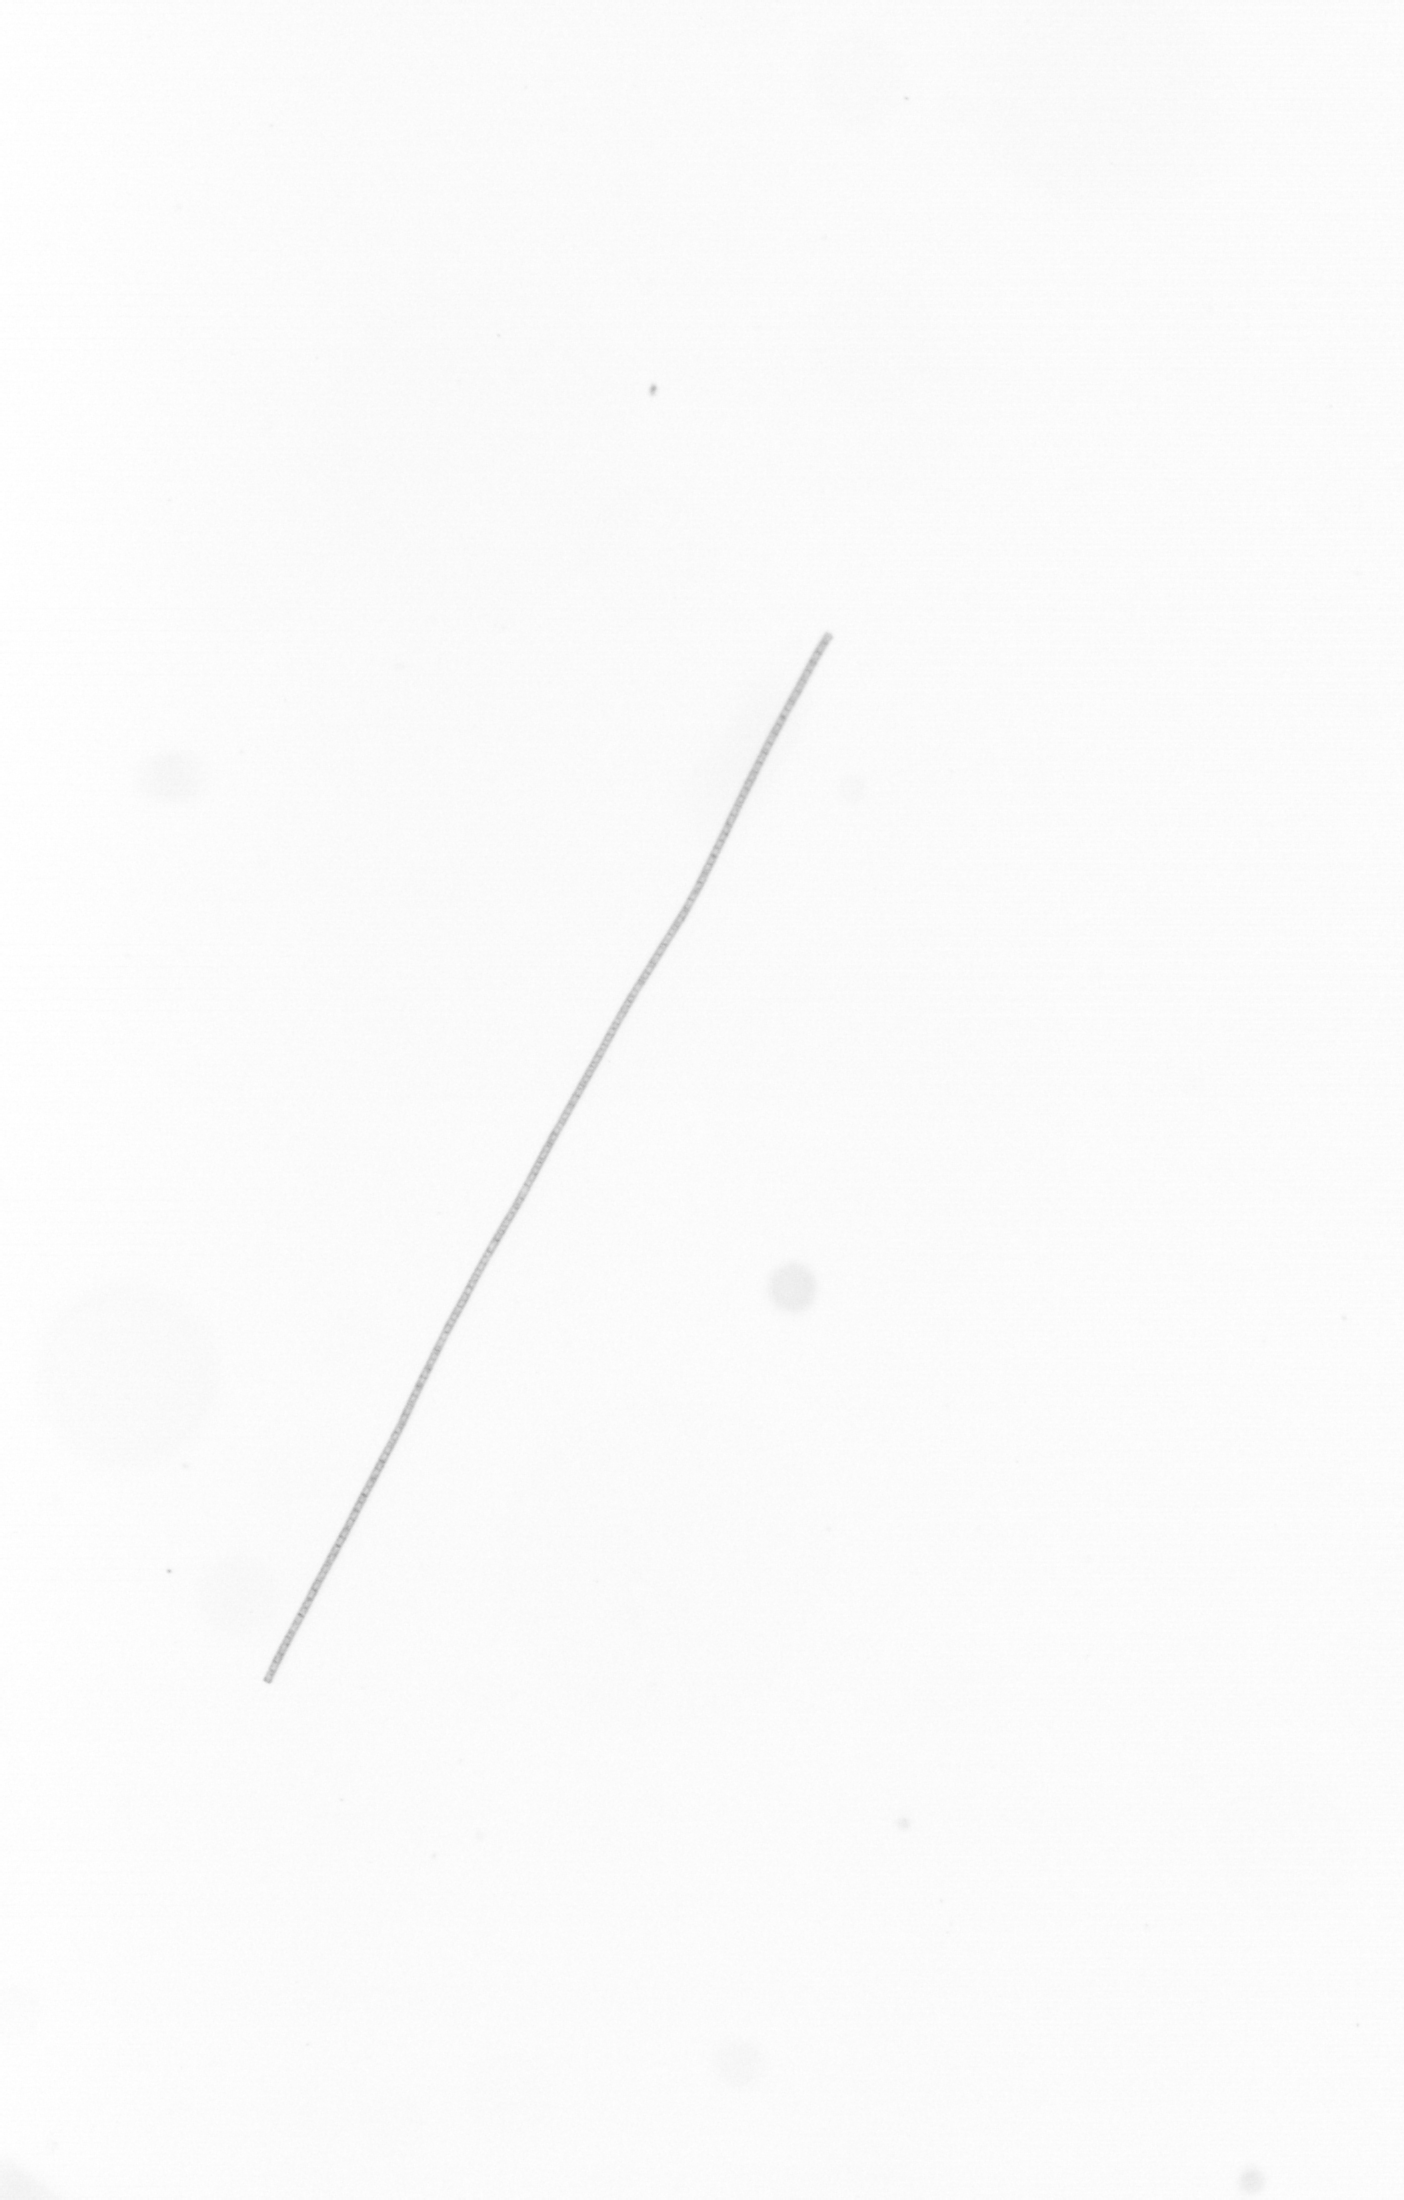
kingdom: Chromista
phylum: Ochrophyta
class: Bacillariophyceae
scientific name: Bacillariophyceae
